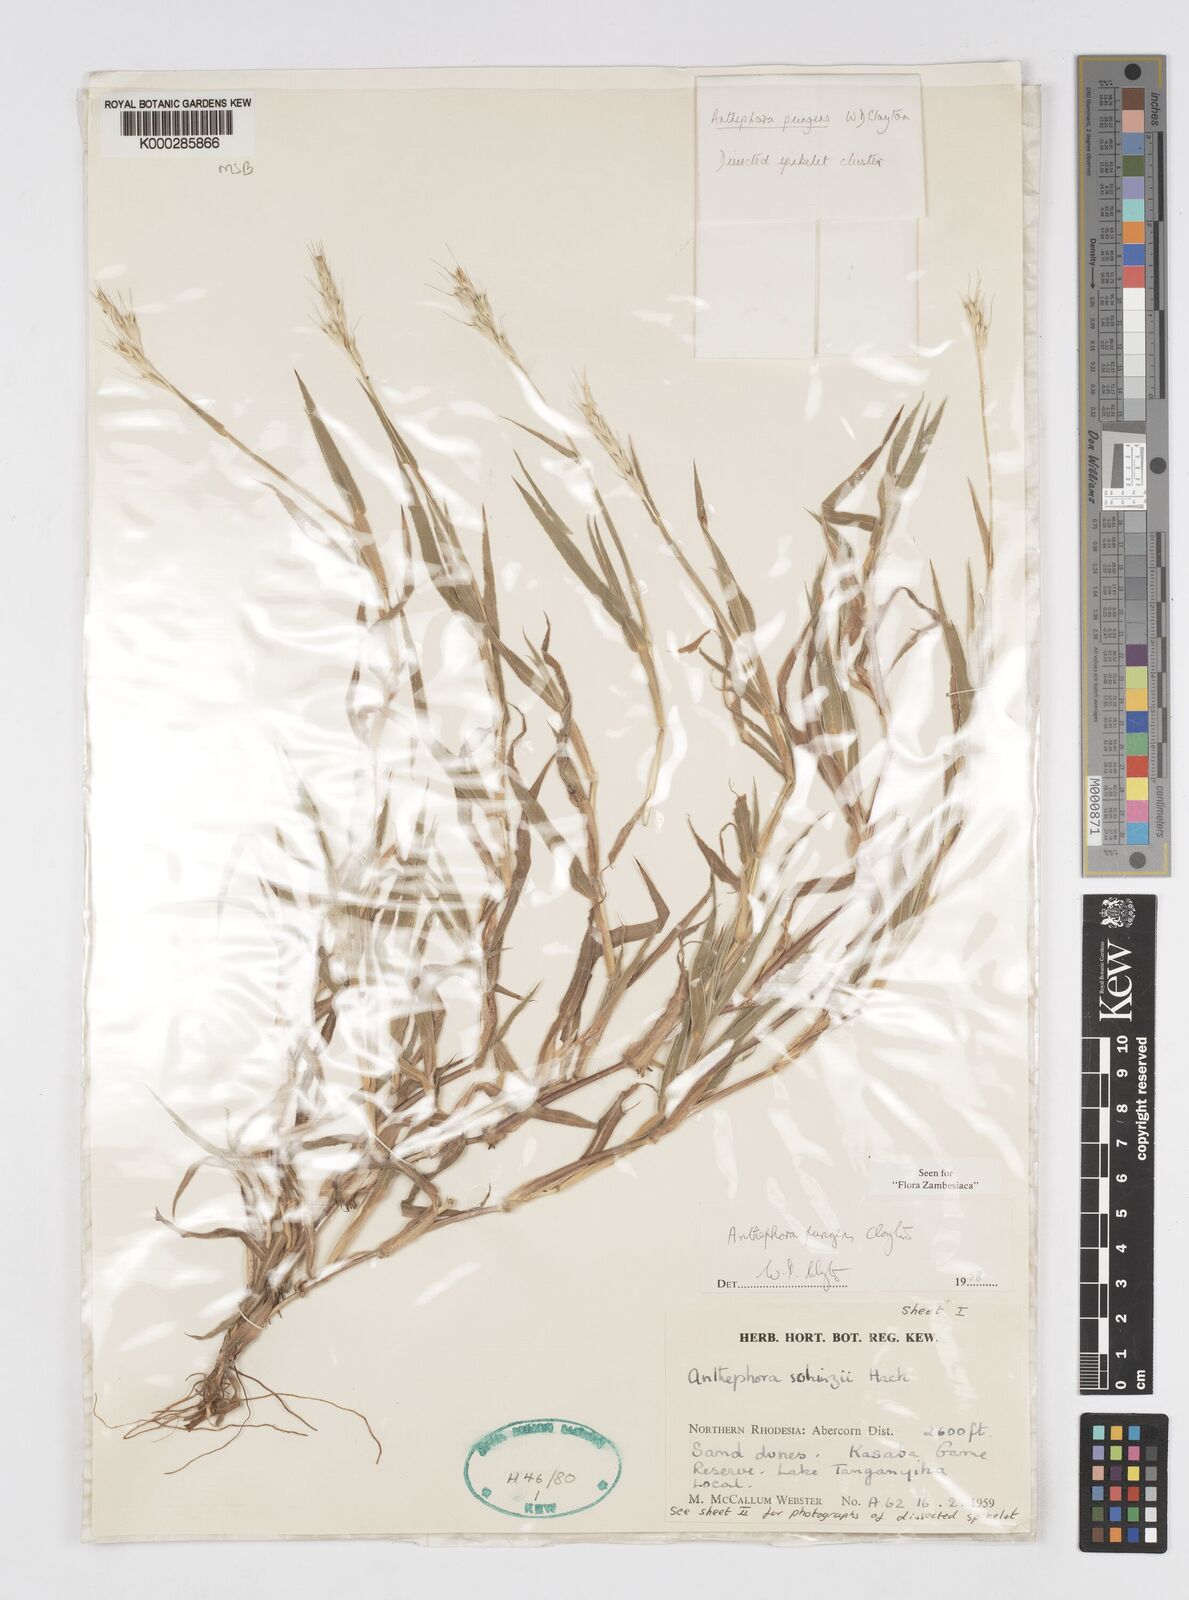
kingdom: Plantae
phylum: Tracheophyta
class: Liliopsida
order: Poales
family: Poaceae
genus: Anthephora
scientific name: Anthephora pungens
